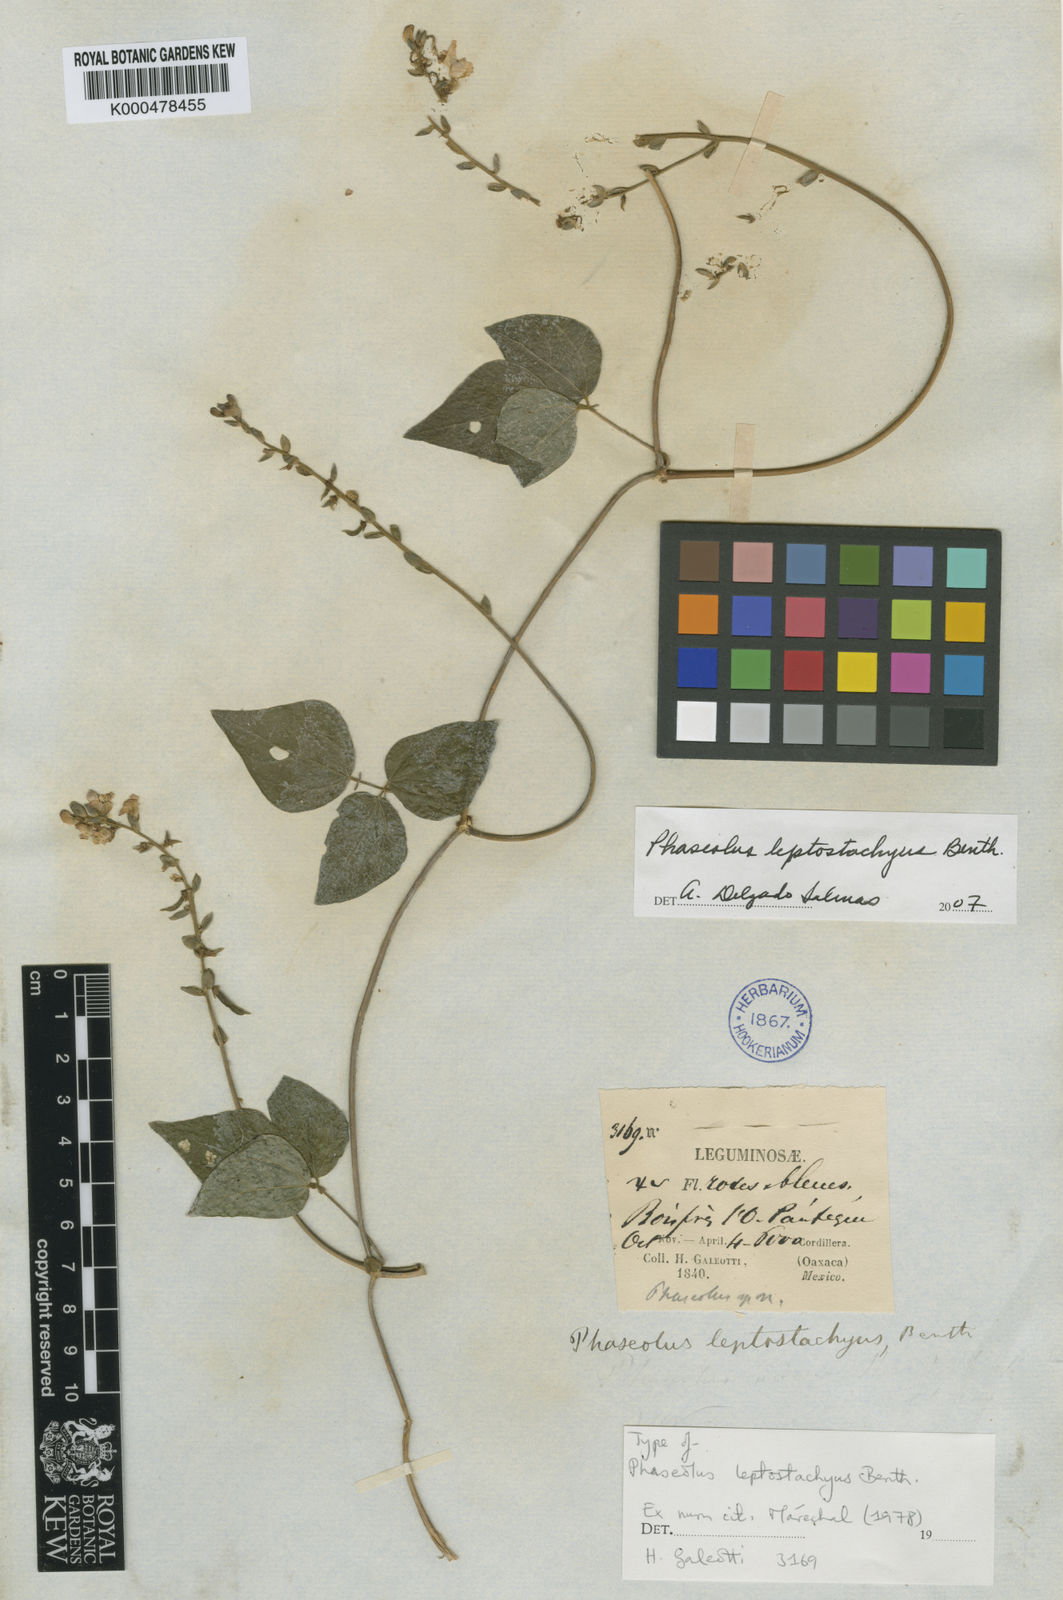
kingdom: Plantae
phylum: Tracheophyta
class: Magnoliopsida
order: Fabales
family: Fabaceae
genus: Phaseolus
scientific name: Phaseolus leptostachyus
